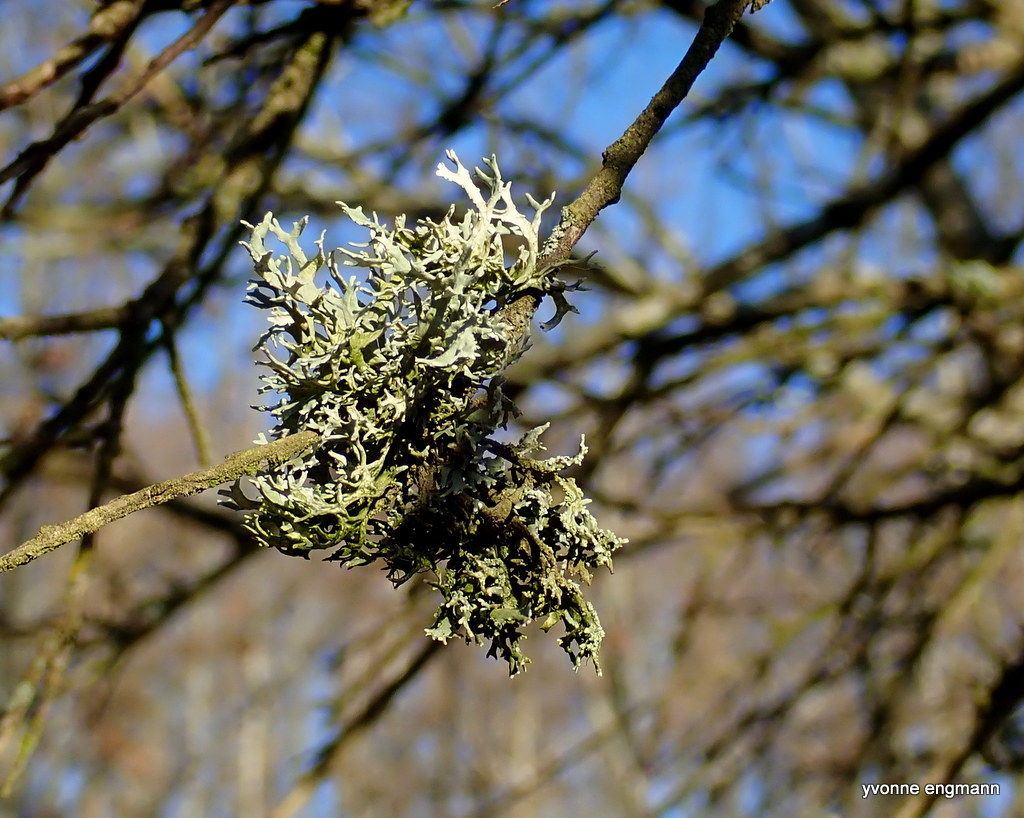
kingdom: Fungi
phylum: Ascomycota
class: Lecanoromycetes
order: Lecanorales
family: Parmeliaceae
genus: Evernia
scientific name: Evernia prunastri
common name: almindelig slåenlav
